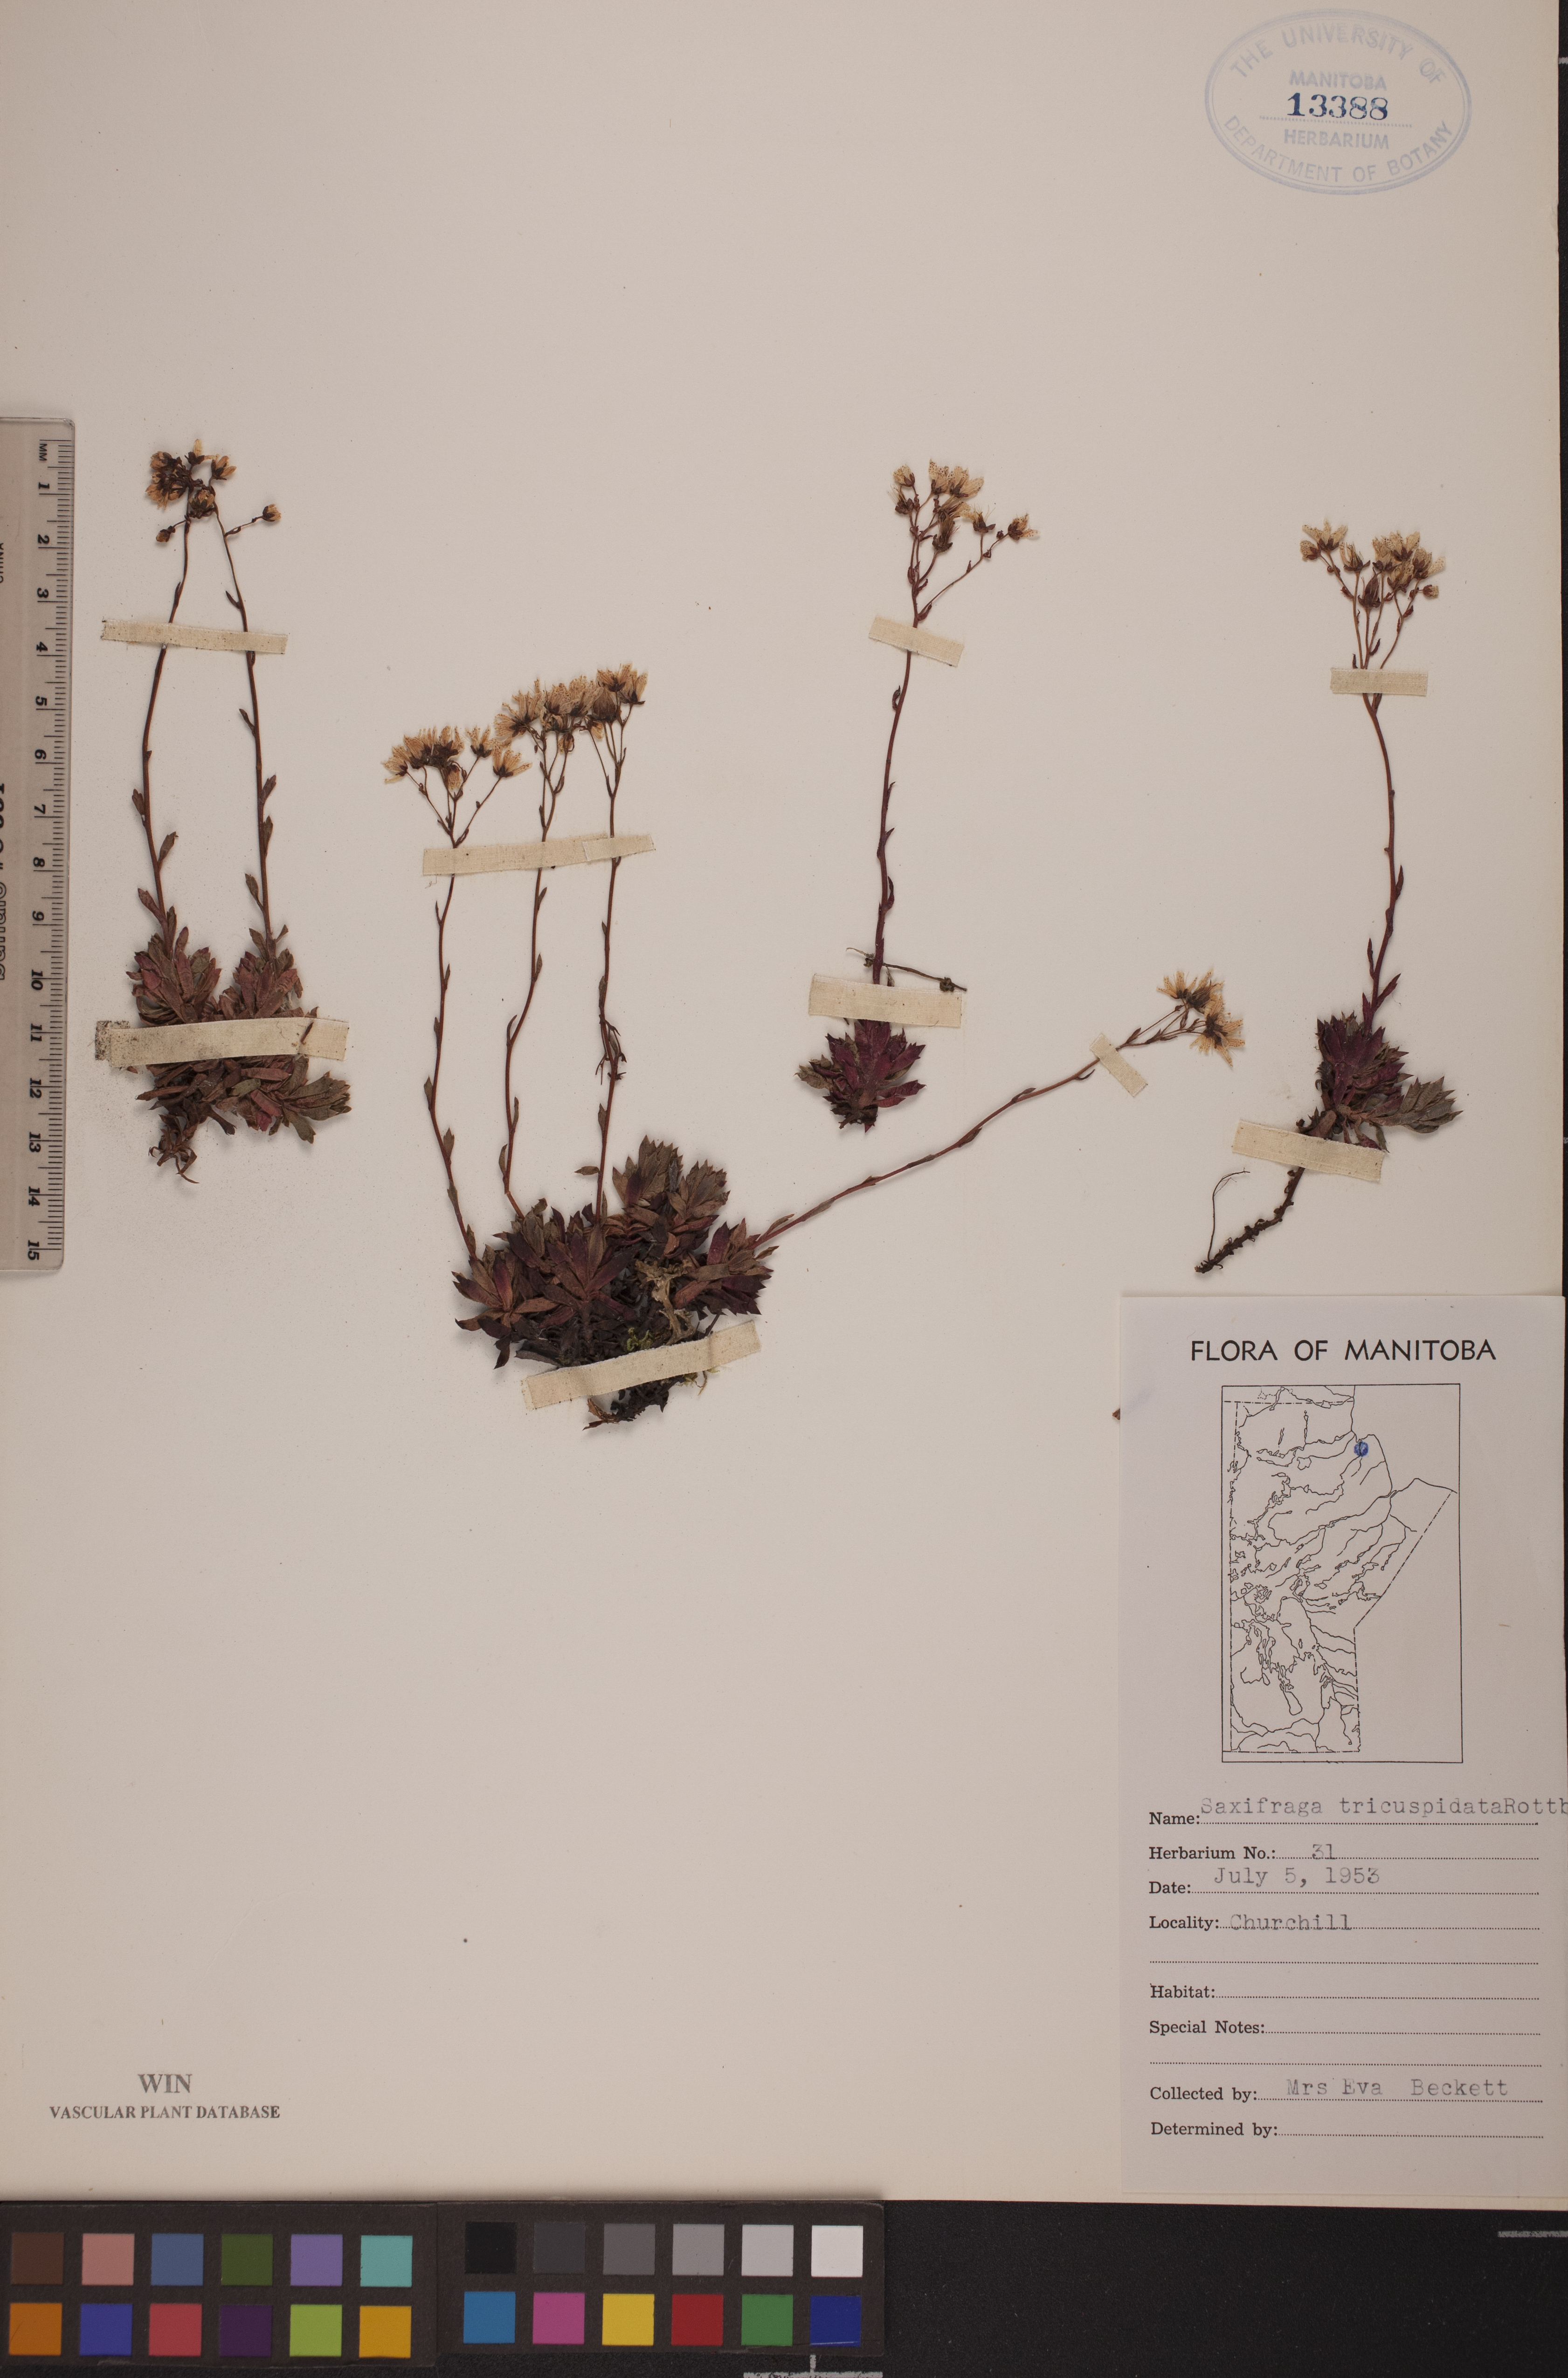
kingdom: Plantae
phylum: Tracheophyta
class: Magnoliopsida
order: Saxifragales
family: Saxifragaceae
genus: Saxifraga
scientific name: Saxifraga tricuspidata
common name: Prickly saxifrage
